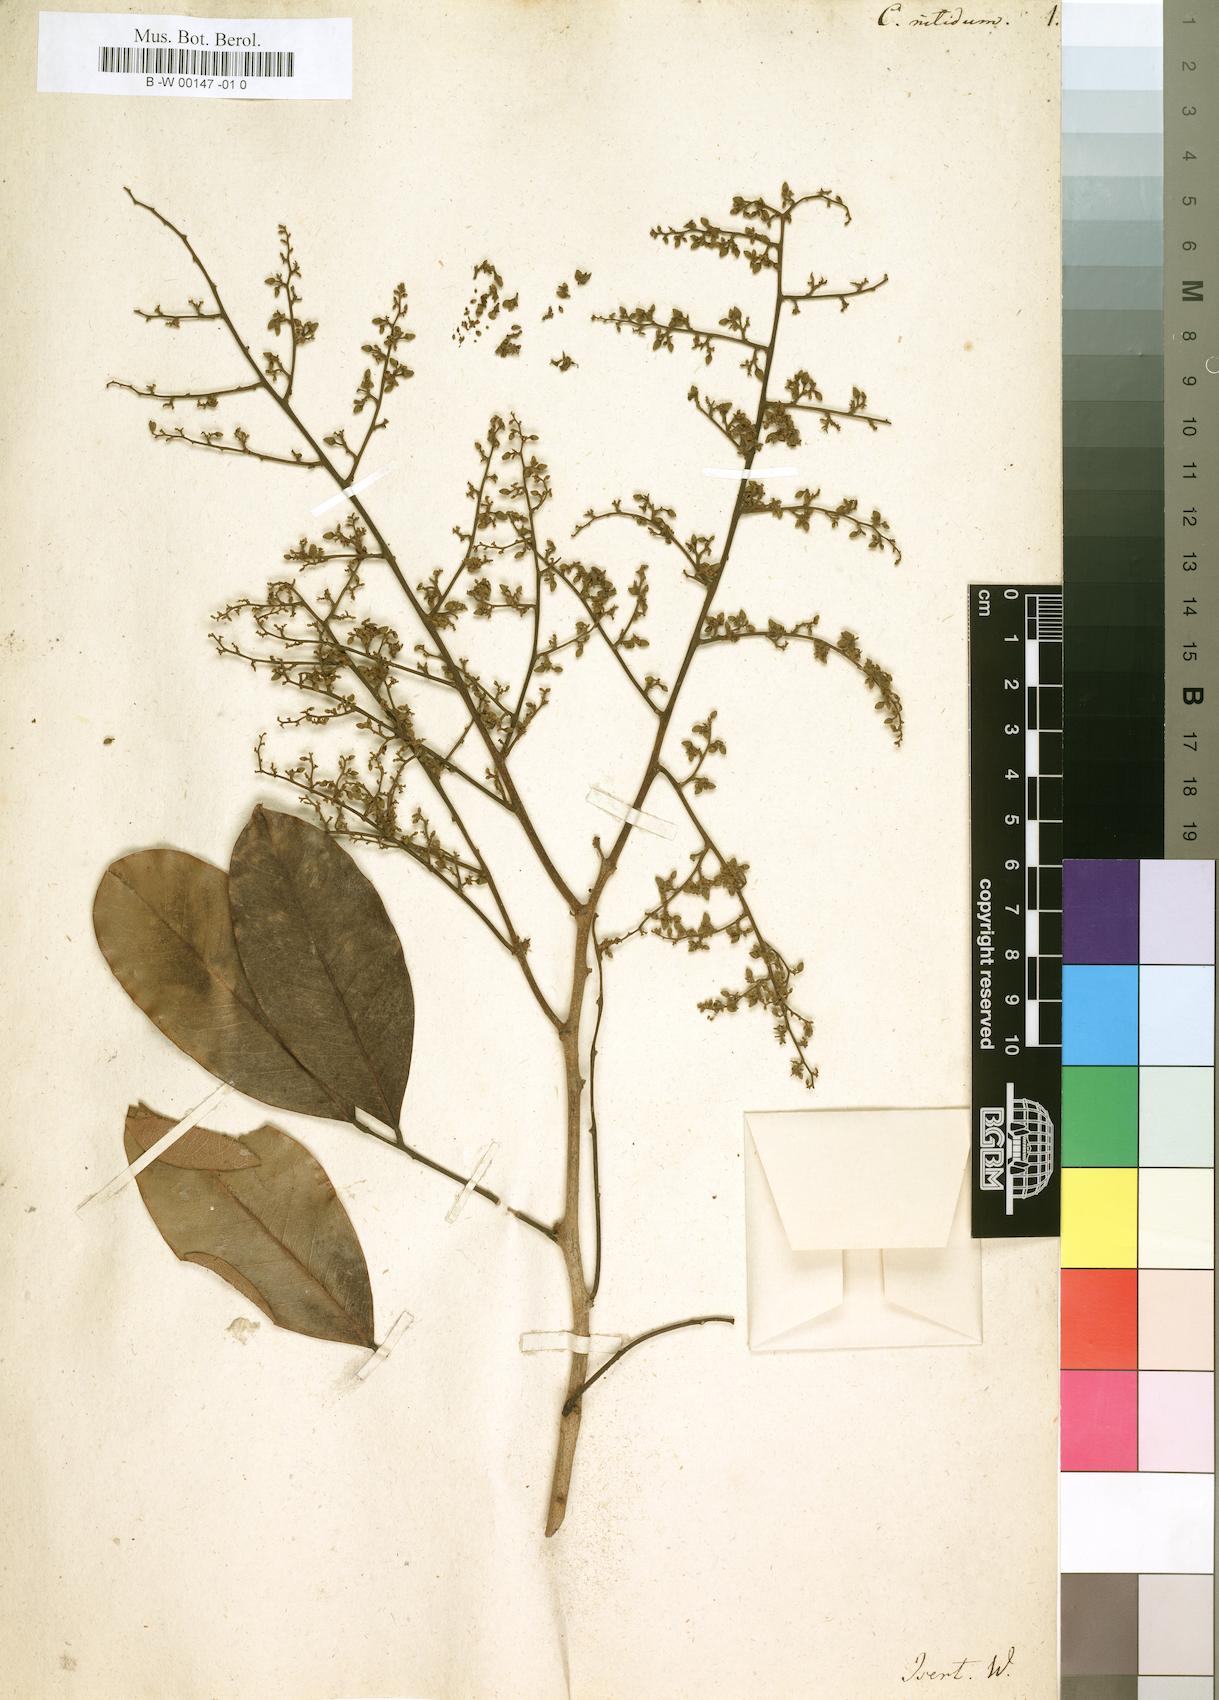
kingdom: Plantae
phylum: Tracheophyta
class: Magnoliopsida
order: Fabales
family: Fabaceae
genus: Dialium
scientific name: Dialium guineense
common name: Sierra leone-tamarind
